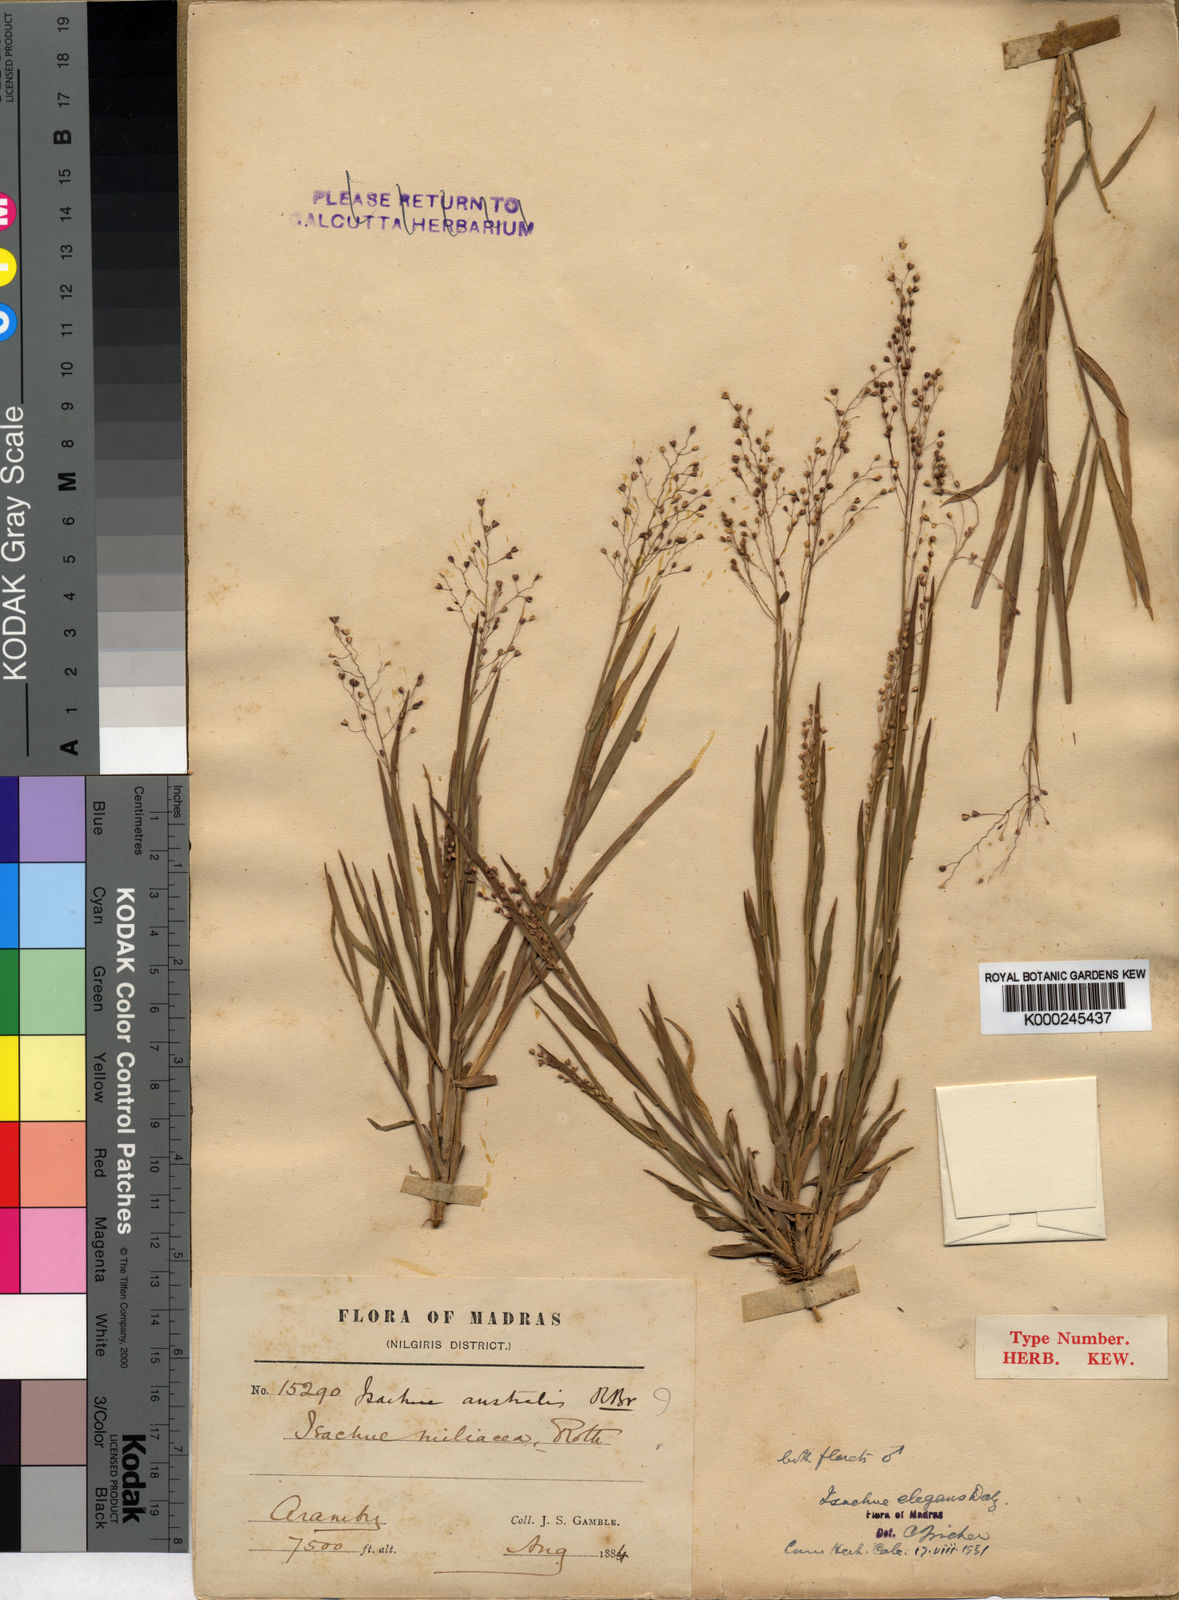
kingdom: Plantae
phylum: Tracheophyta
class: Liliopsida
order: Poales
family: Poaceae
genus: Isachne
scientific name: Isachne deccanensis
